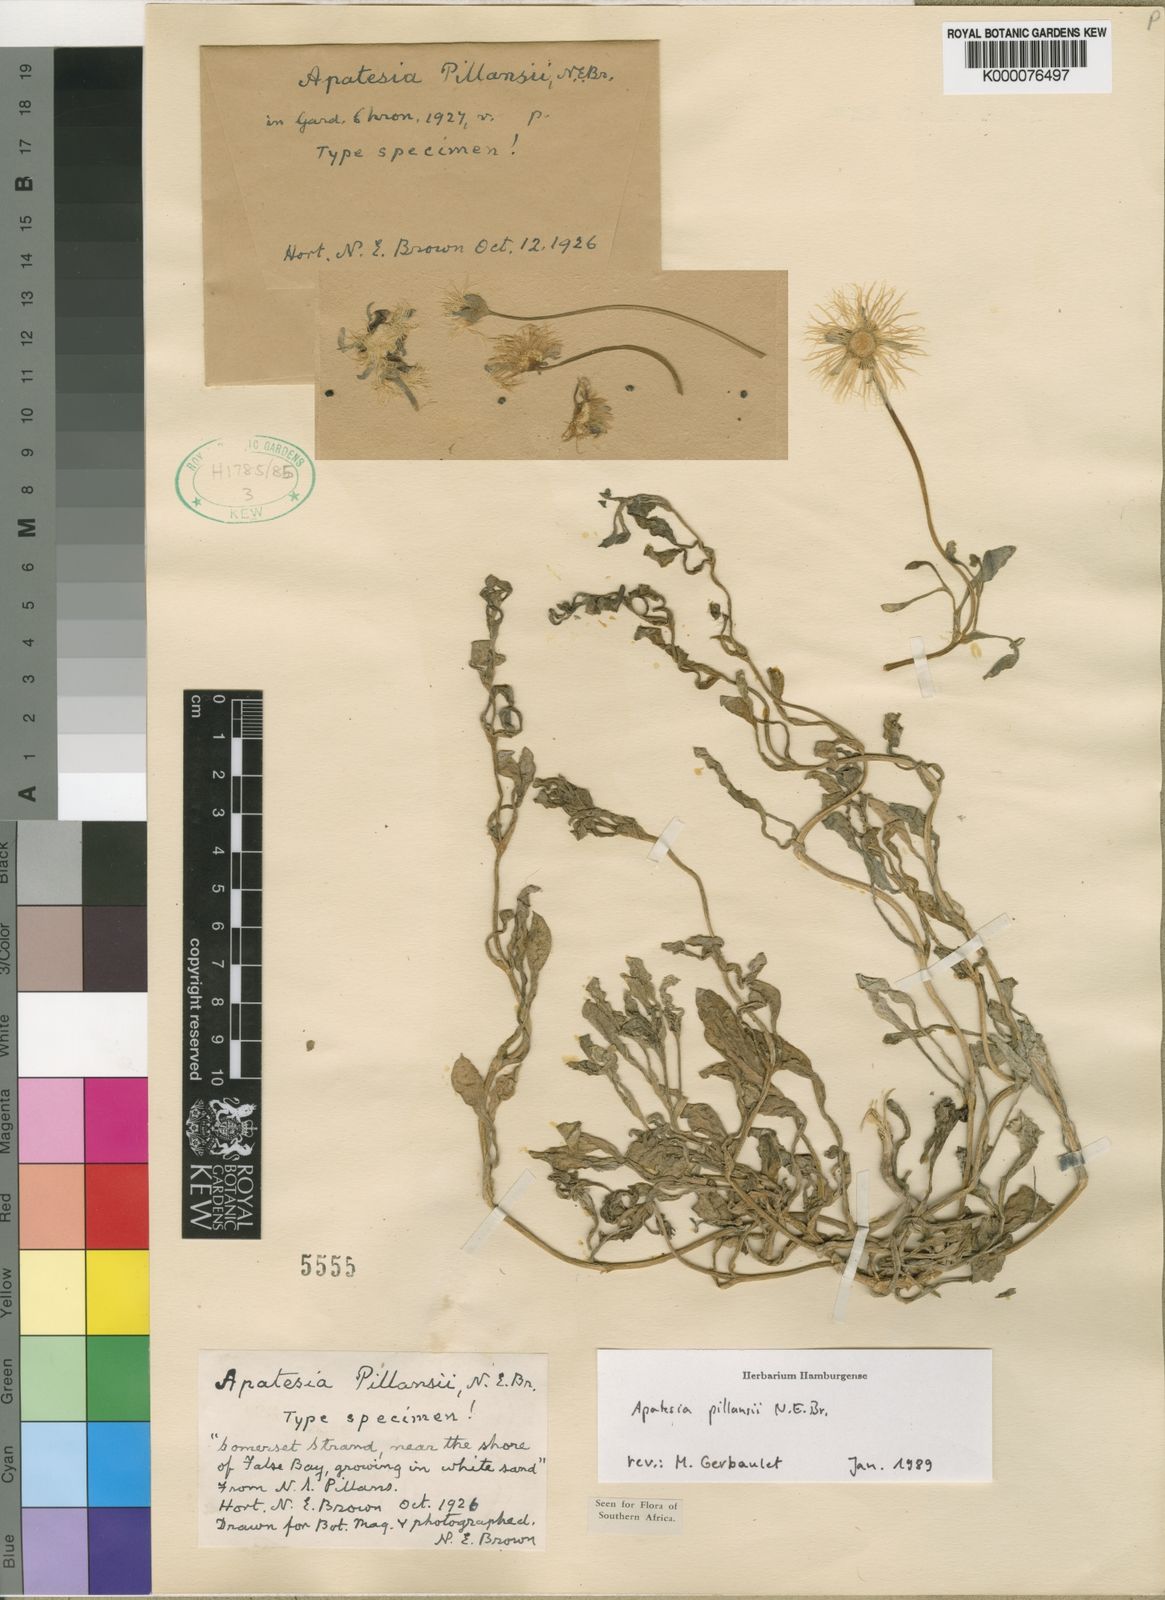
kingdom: Plantae
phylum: Tracheophyta
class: Magnoliopsida
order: Caryophyllales
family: Aizoaceae
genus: Apatesia
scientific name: Apatesia pillansii
